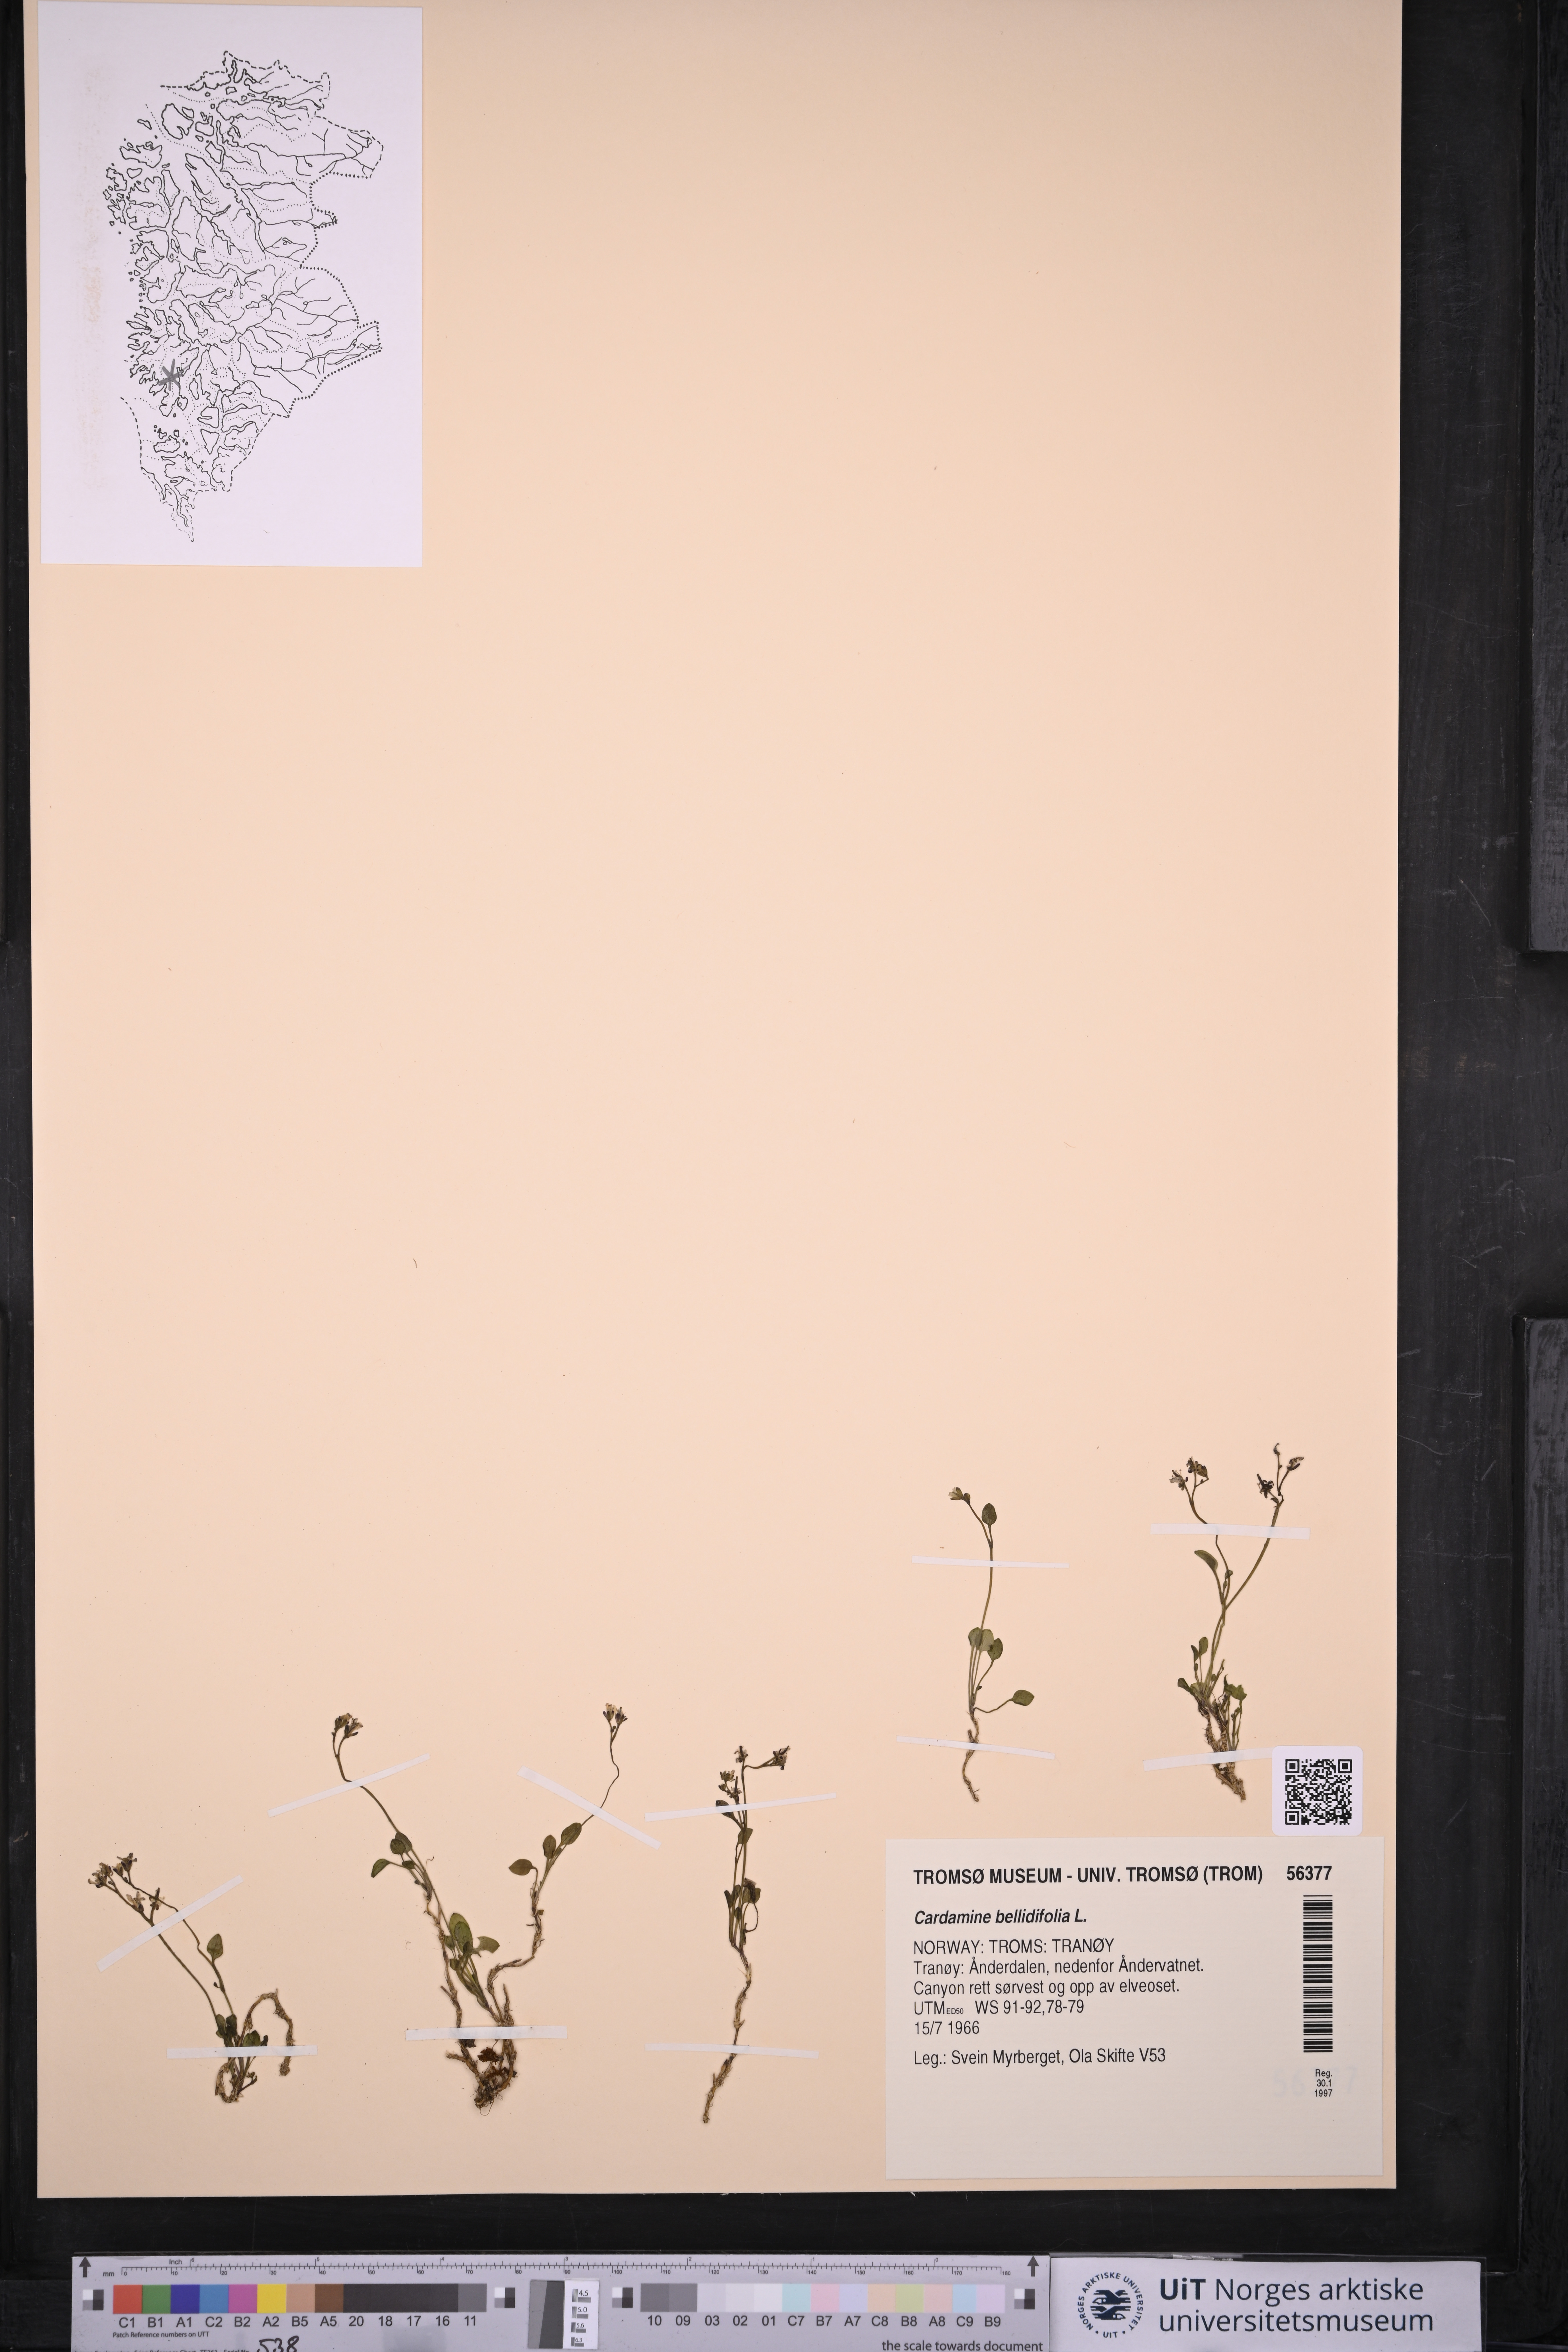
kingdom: Plantae
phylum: Tracheophyta
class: Magnoliopsida
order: Brassicales
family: Brassicaceae
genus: Cardamine
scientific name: Cardamine bellidifolia
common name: Alpine bittercress
